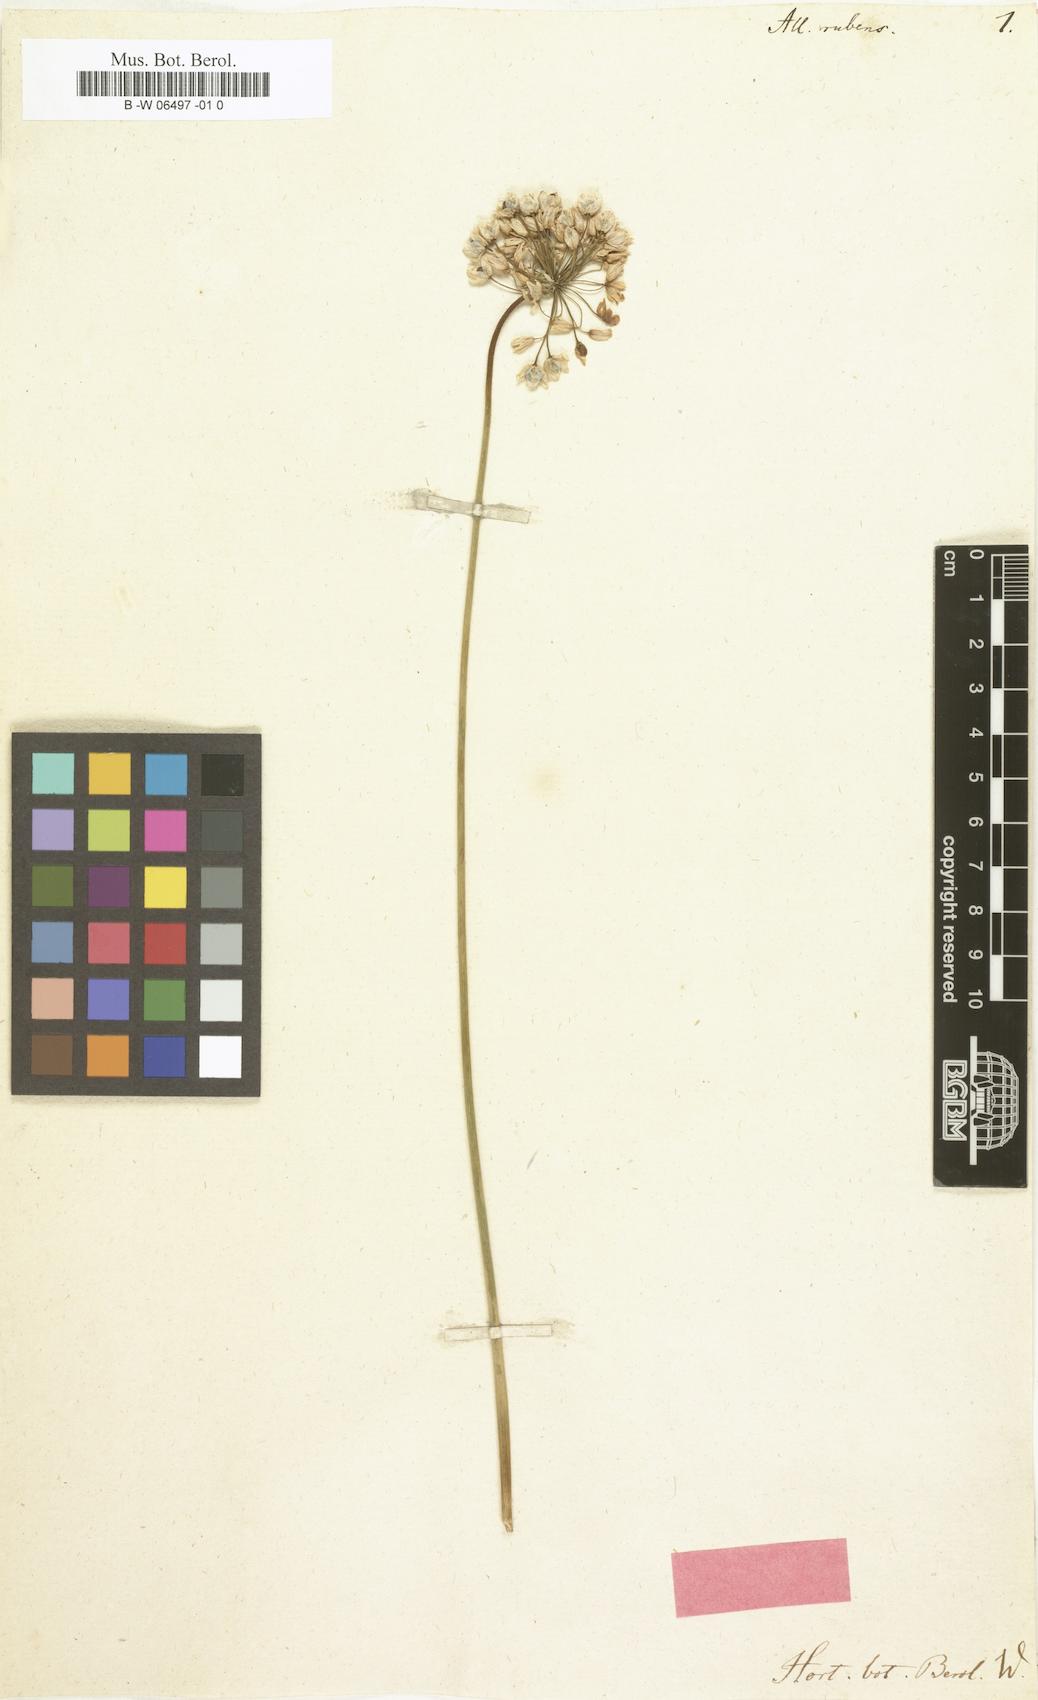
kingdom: Plantae
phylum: Tracheophyta
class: Liliopsida
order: Asparagales
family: Amaryllidaceae
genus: Allium
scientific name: Allium rubens
